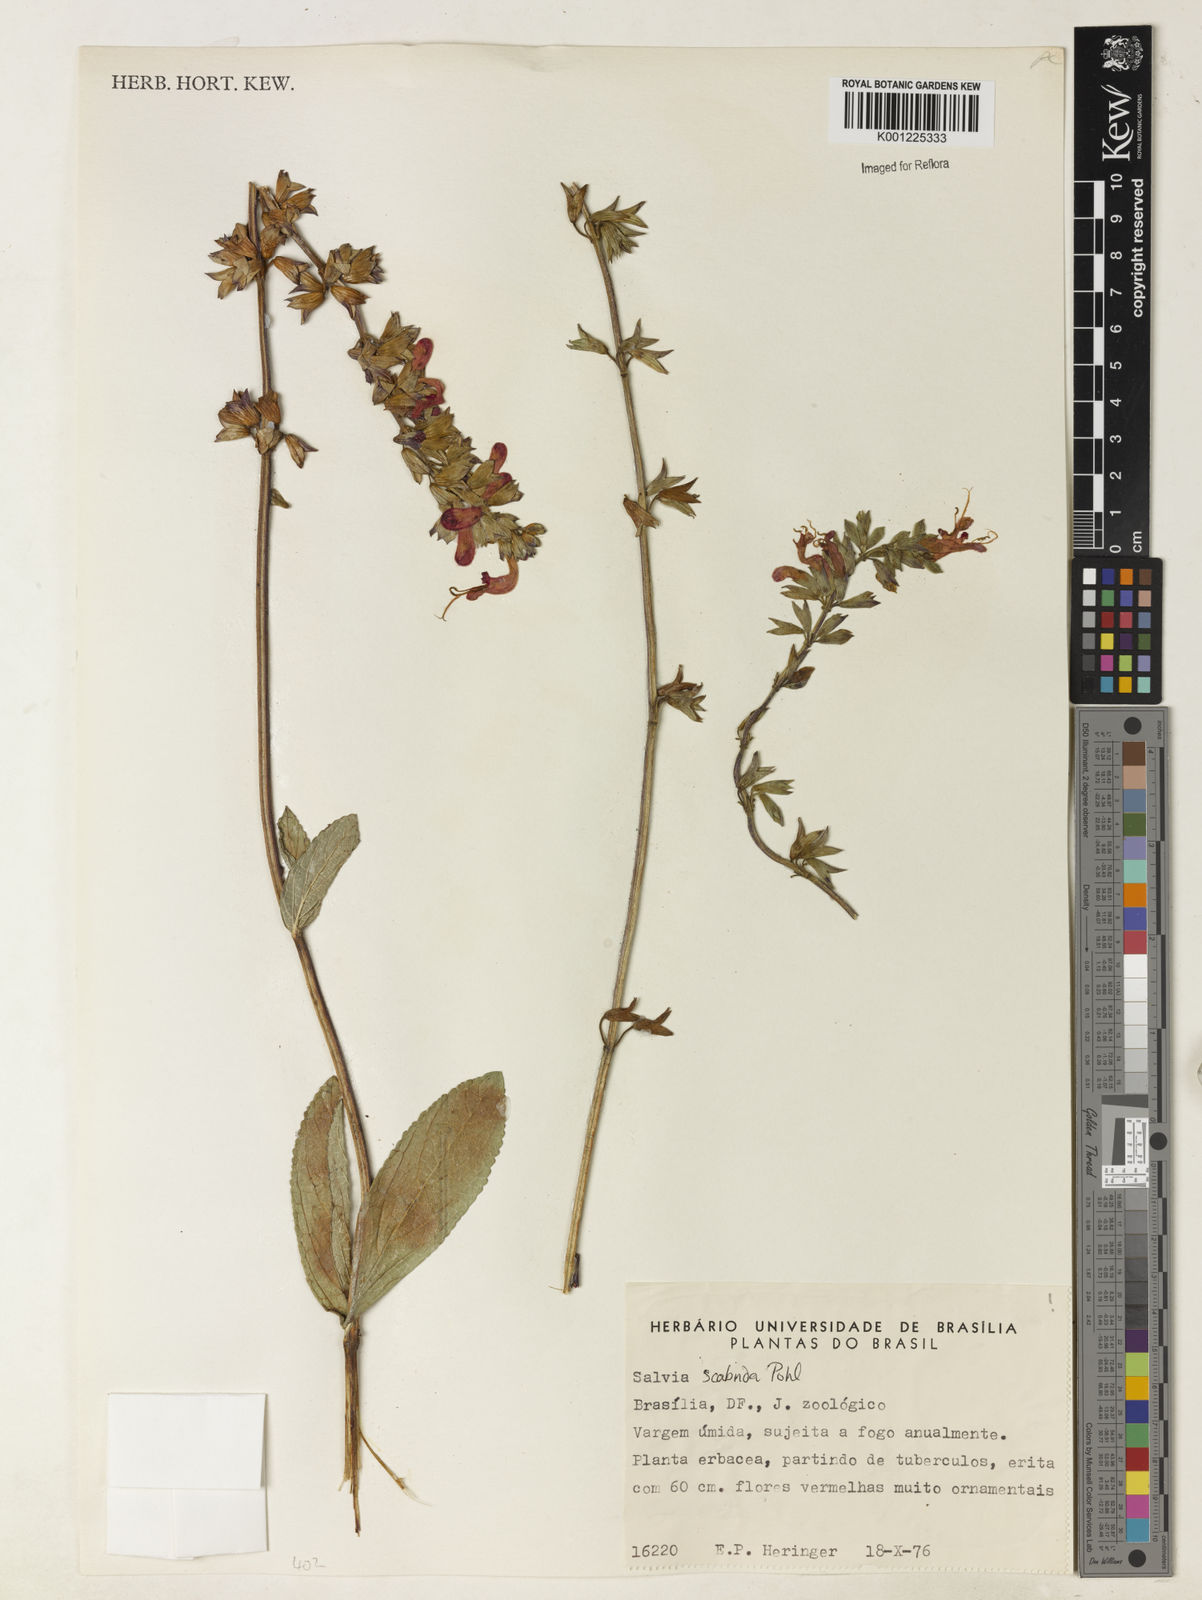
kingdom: Plantae
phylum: Tracheophyta
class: Magnoliopsida
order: Lamiales
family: Lamiaceae
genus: Salvia
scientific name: Salvia scabrida
